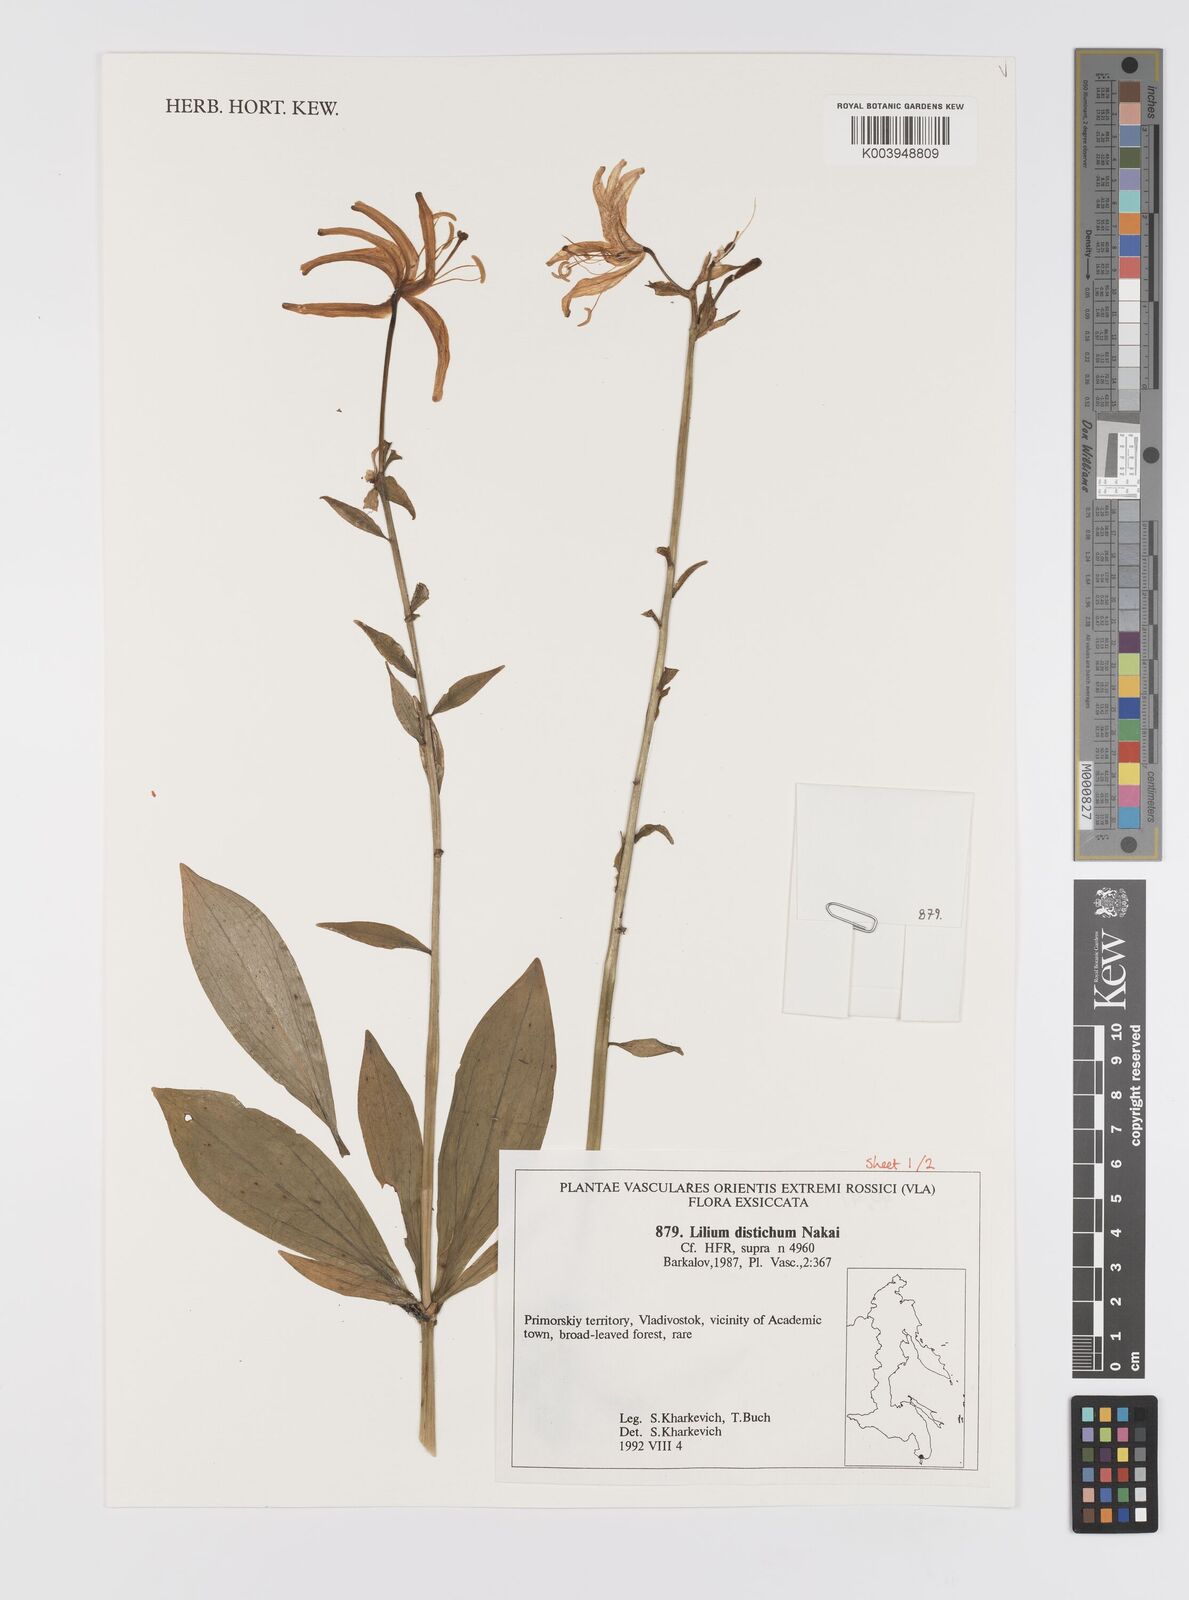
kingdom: Plantae
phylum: Tracheophyta
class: Liliopsida
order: Liliales
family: Liliaceae
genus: Lilium
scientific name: Lilium distichum
